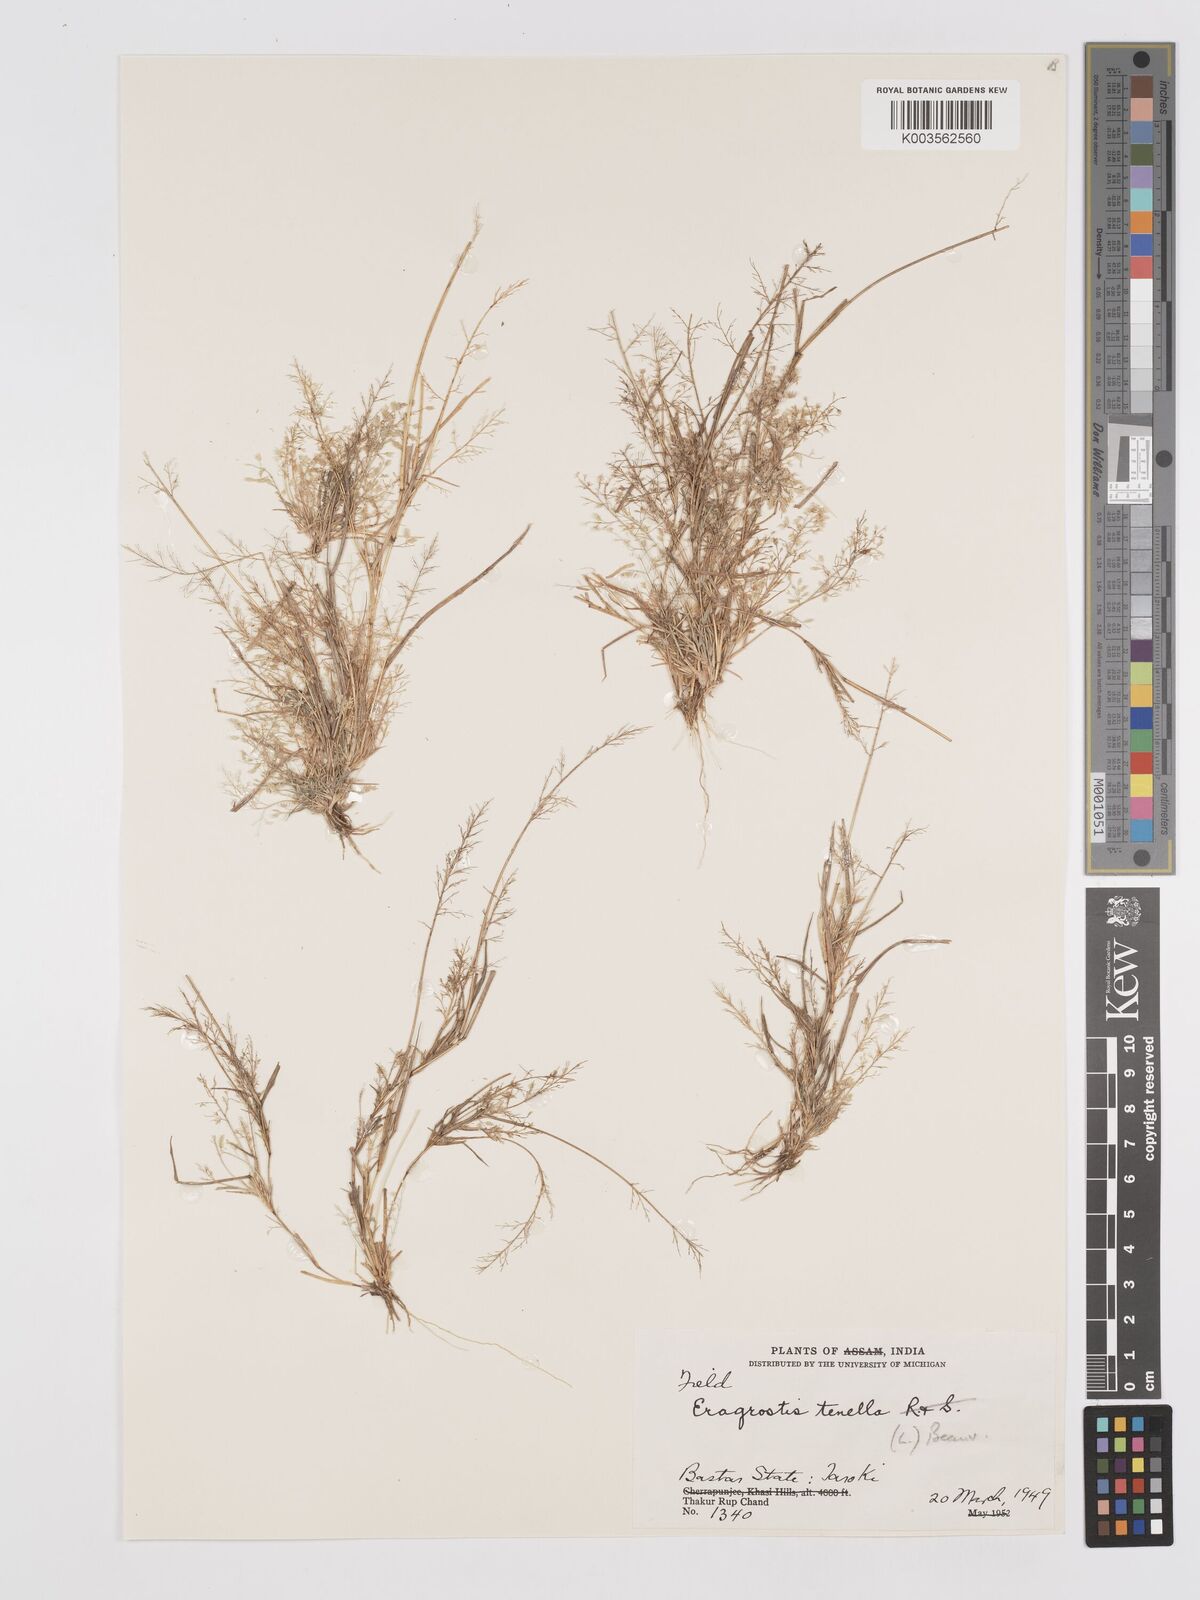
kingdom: Plantae
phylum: Tracheophyta
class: Liliopsida
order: Poales
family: Poaceae
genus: Eragrostis
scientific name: Eragrostis tenella
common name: Japanese lovegrass
